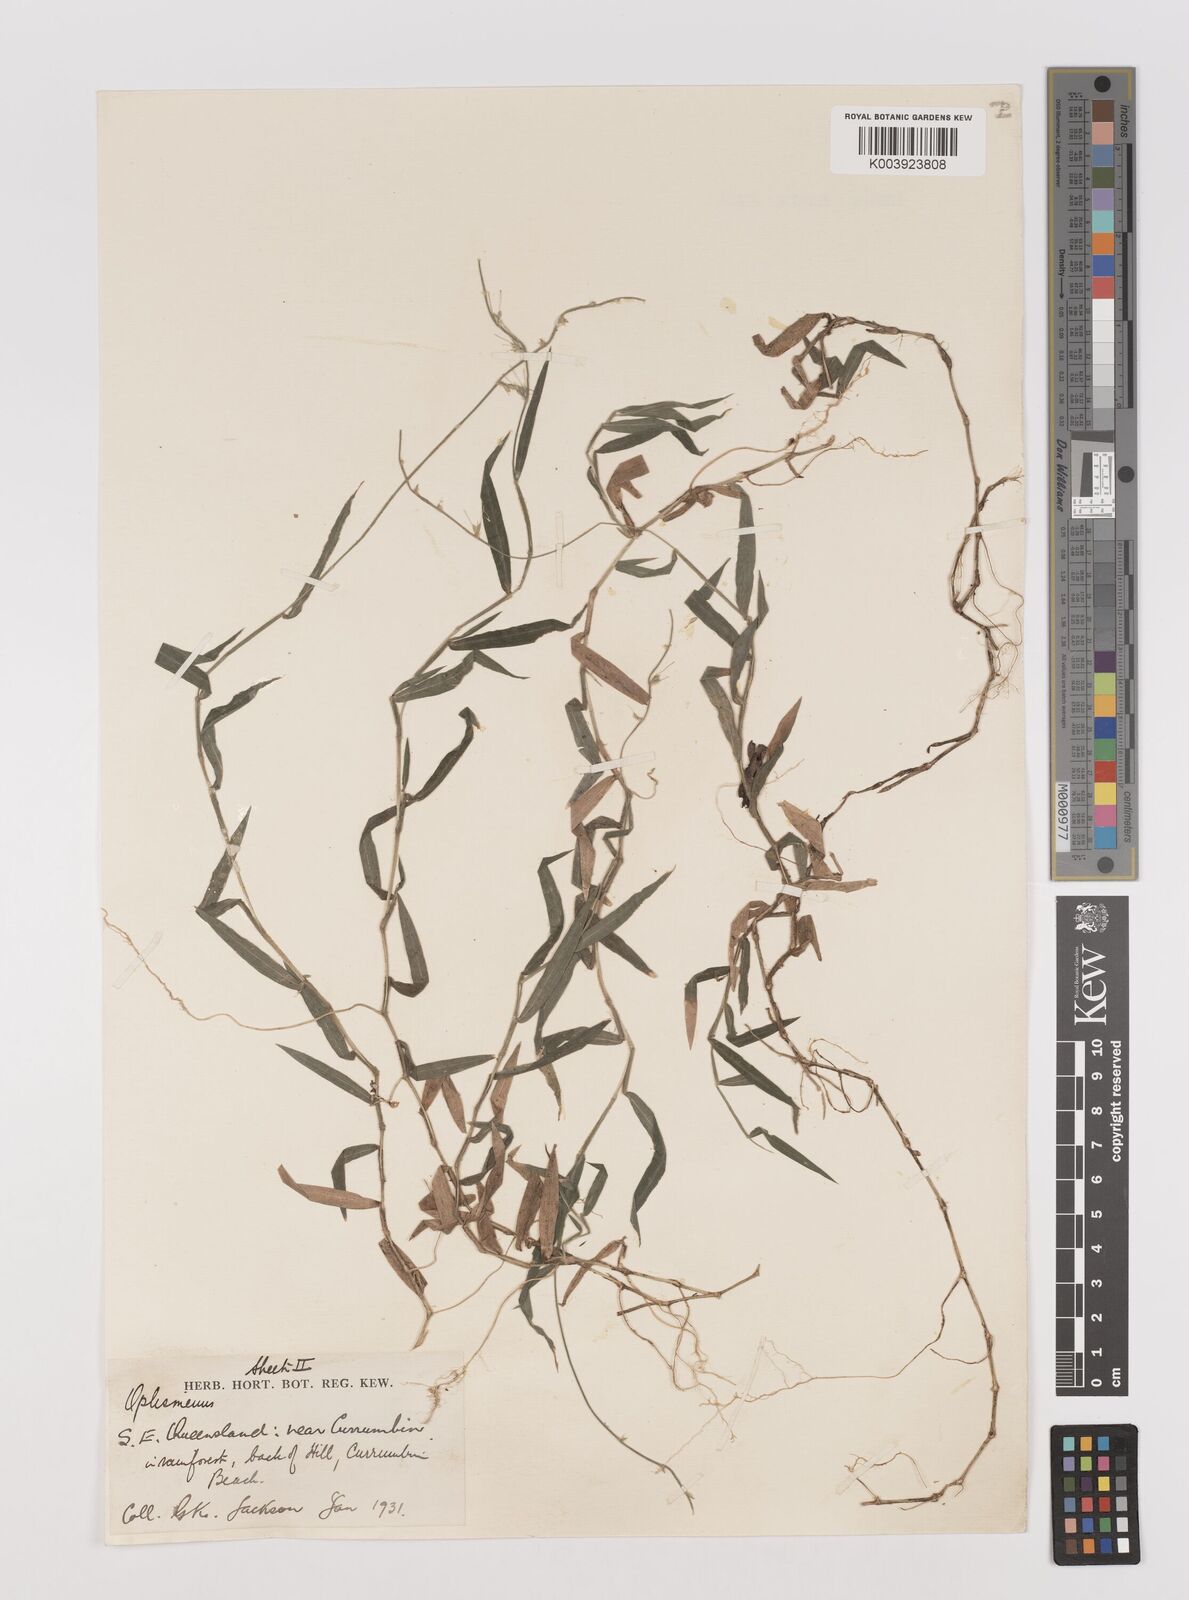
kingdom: Plantae
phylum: Tracheophyta
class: Liliopsida
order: Poales
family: Poaceae
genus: Oplismenus
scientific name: Oplismenus hirtellus
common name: Basketgrass
